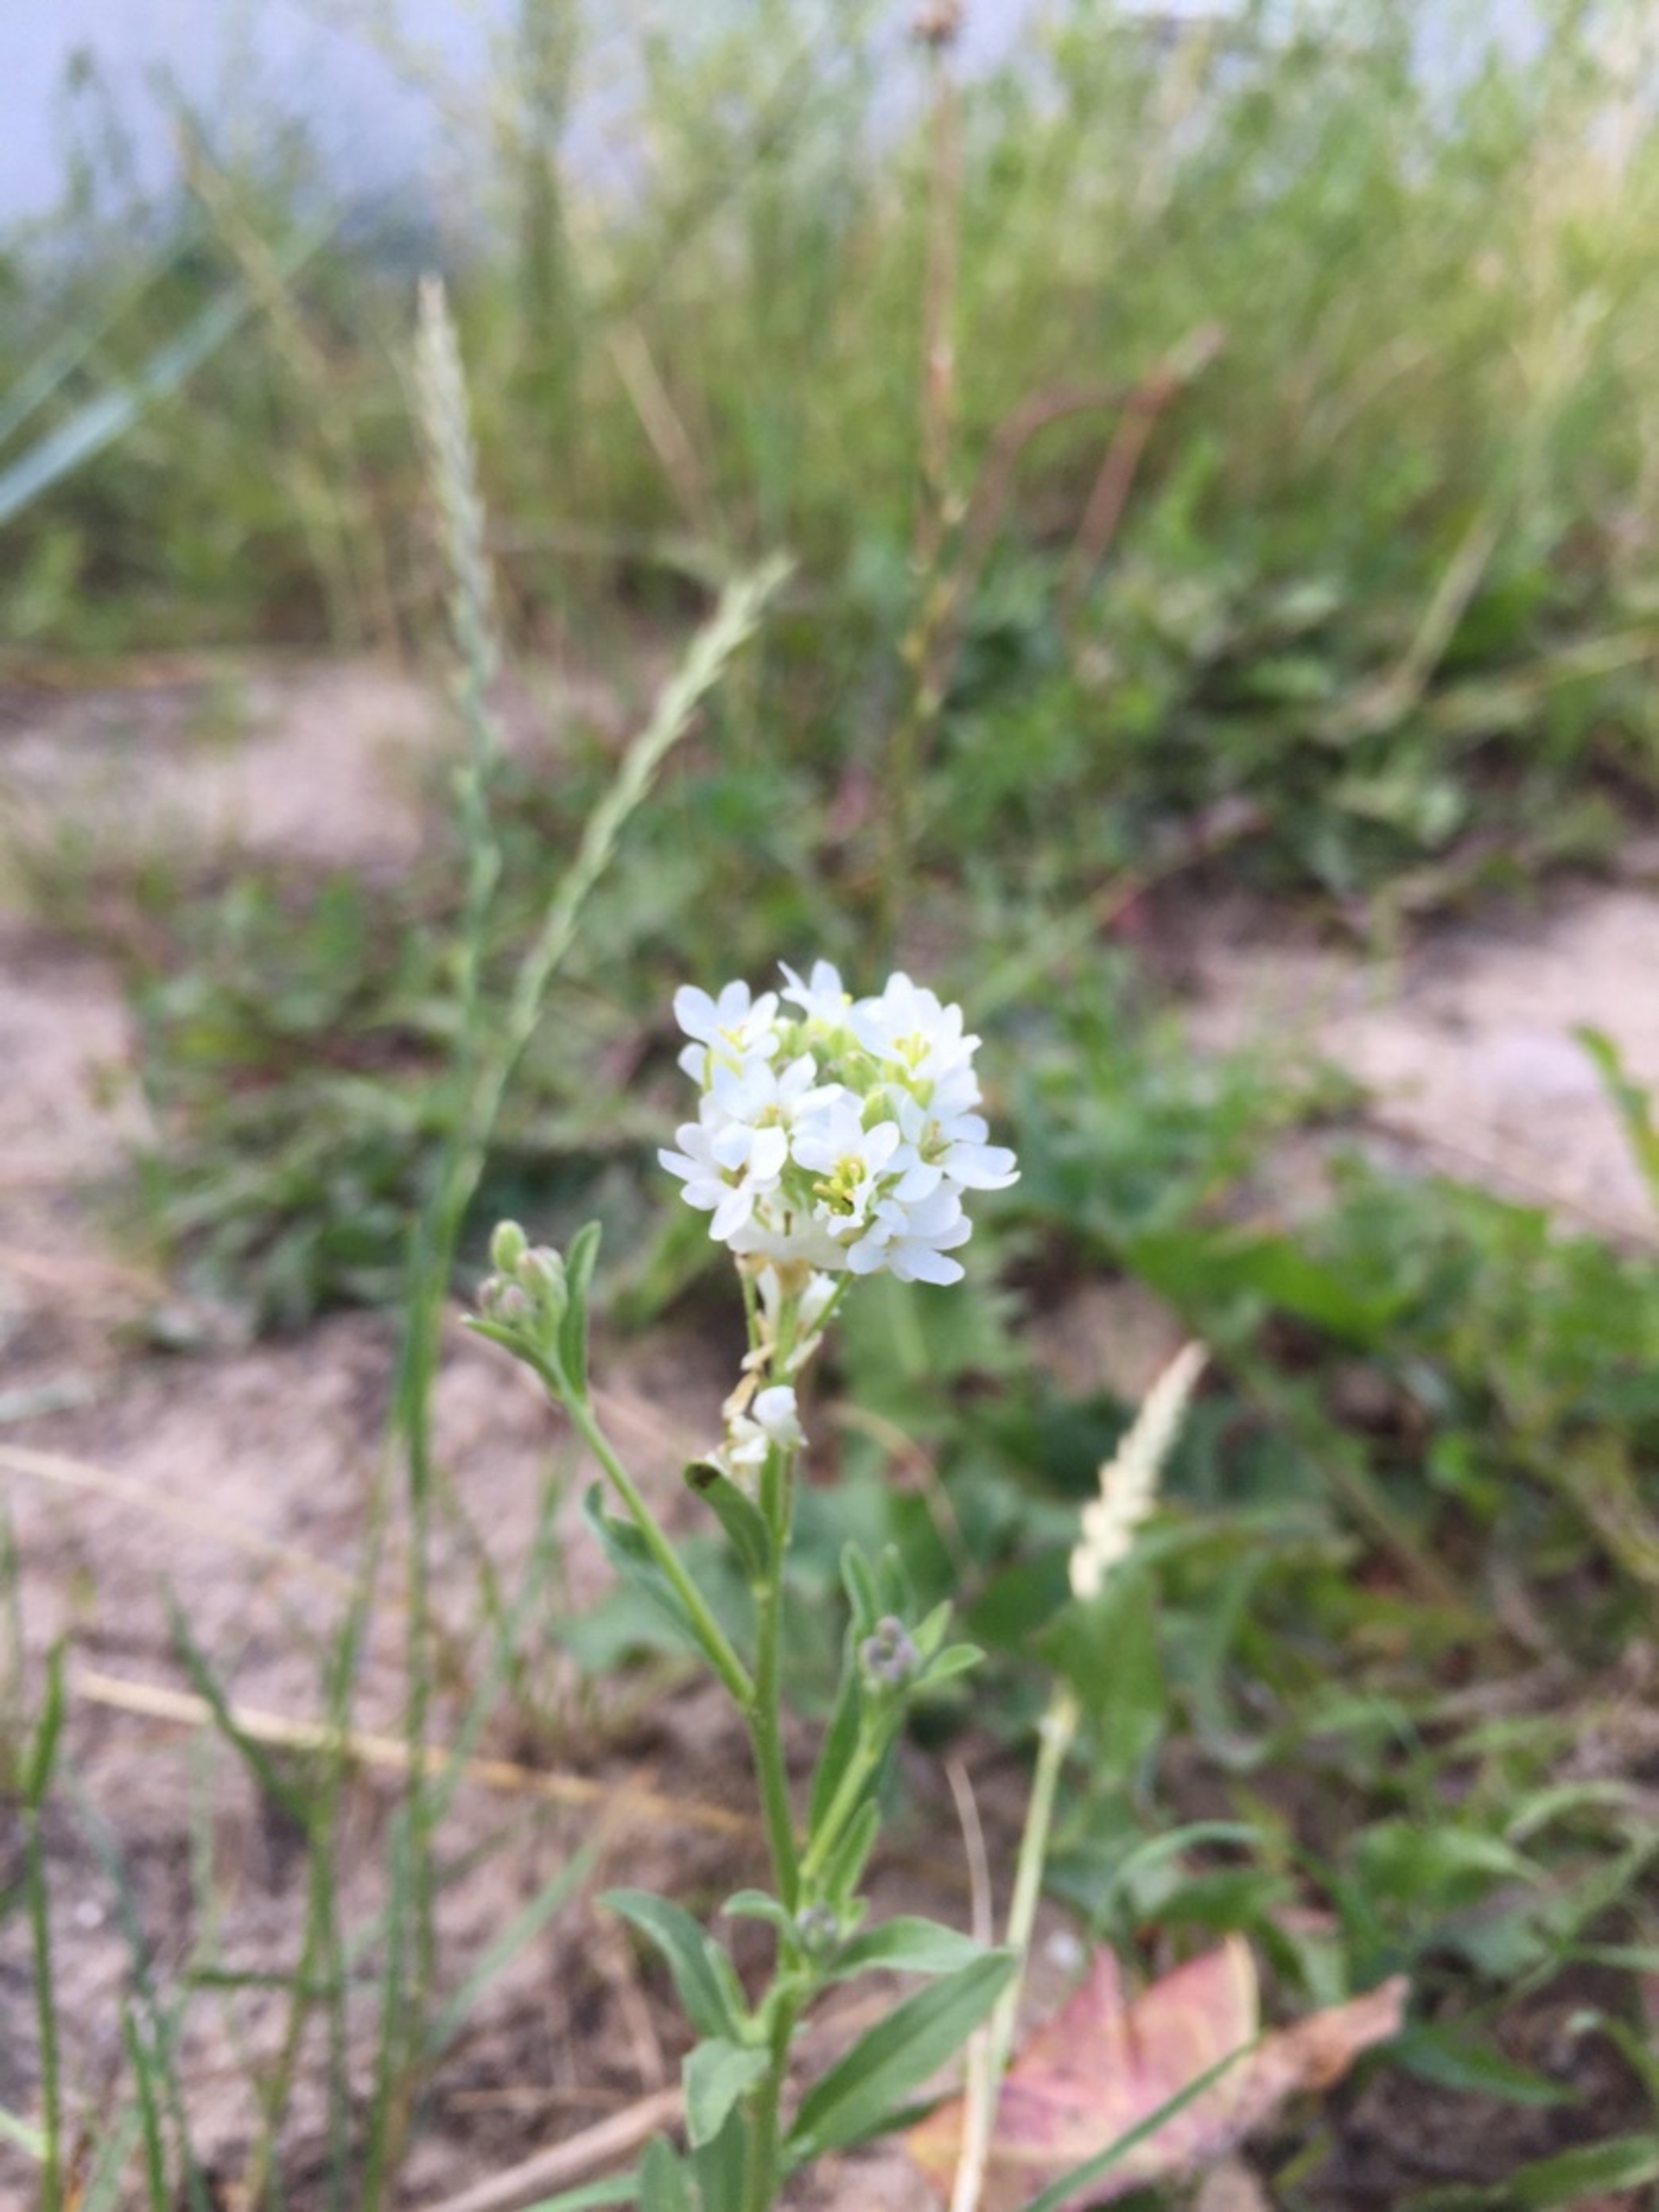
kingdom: Plantae
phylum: Tracheophyta
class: Magnoliopsida
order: Brassicales
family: Brassicaceae
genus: Berteroa
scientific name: Berteroa incana
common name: Kløvplade
